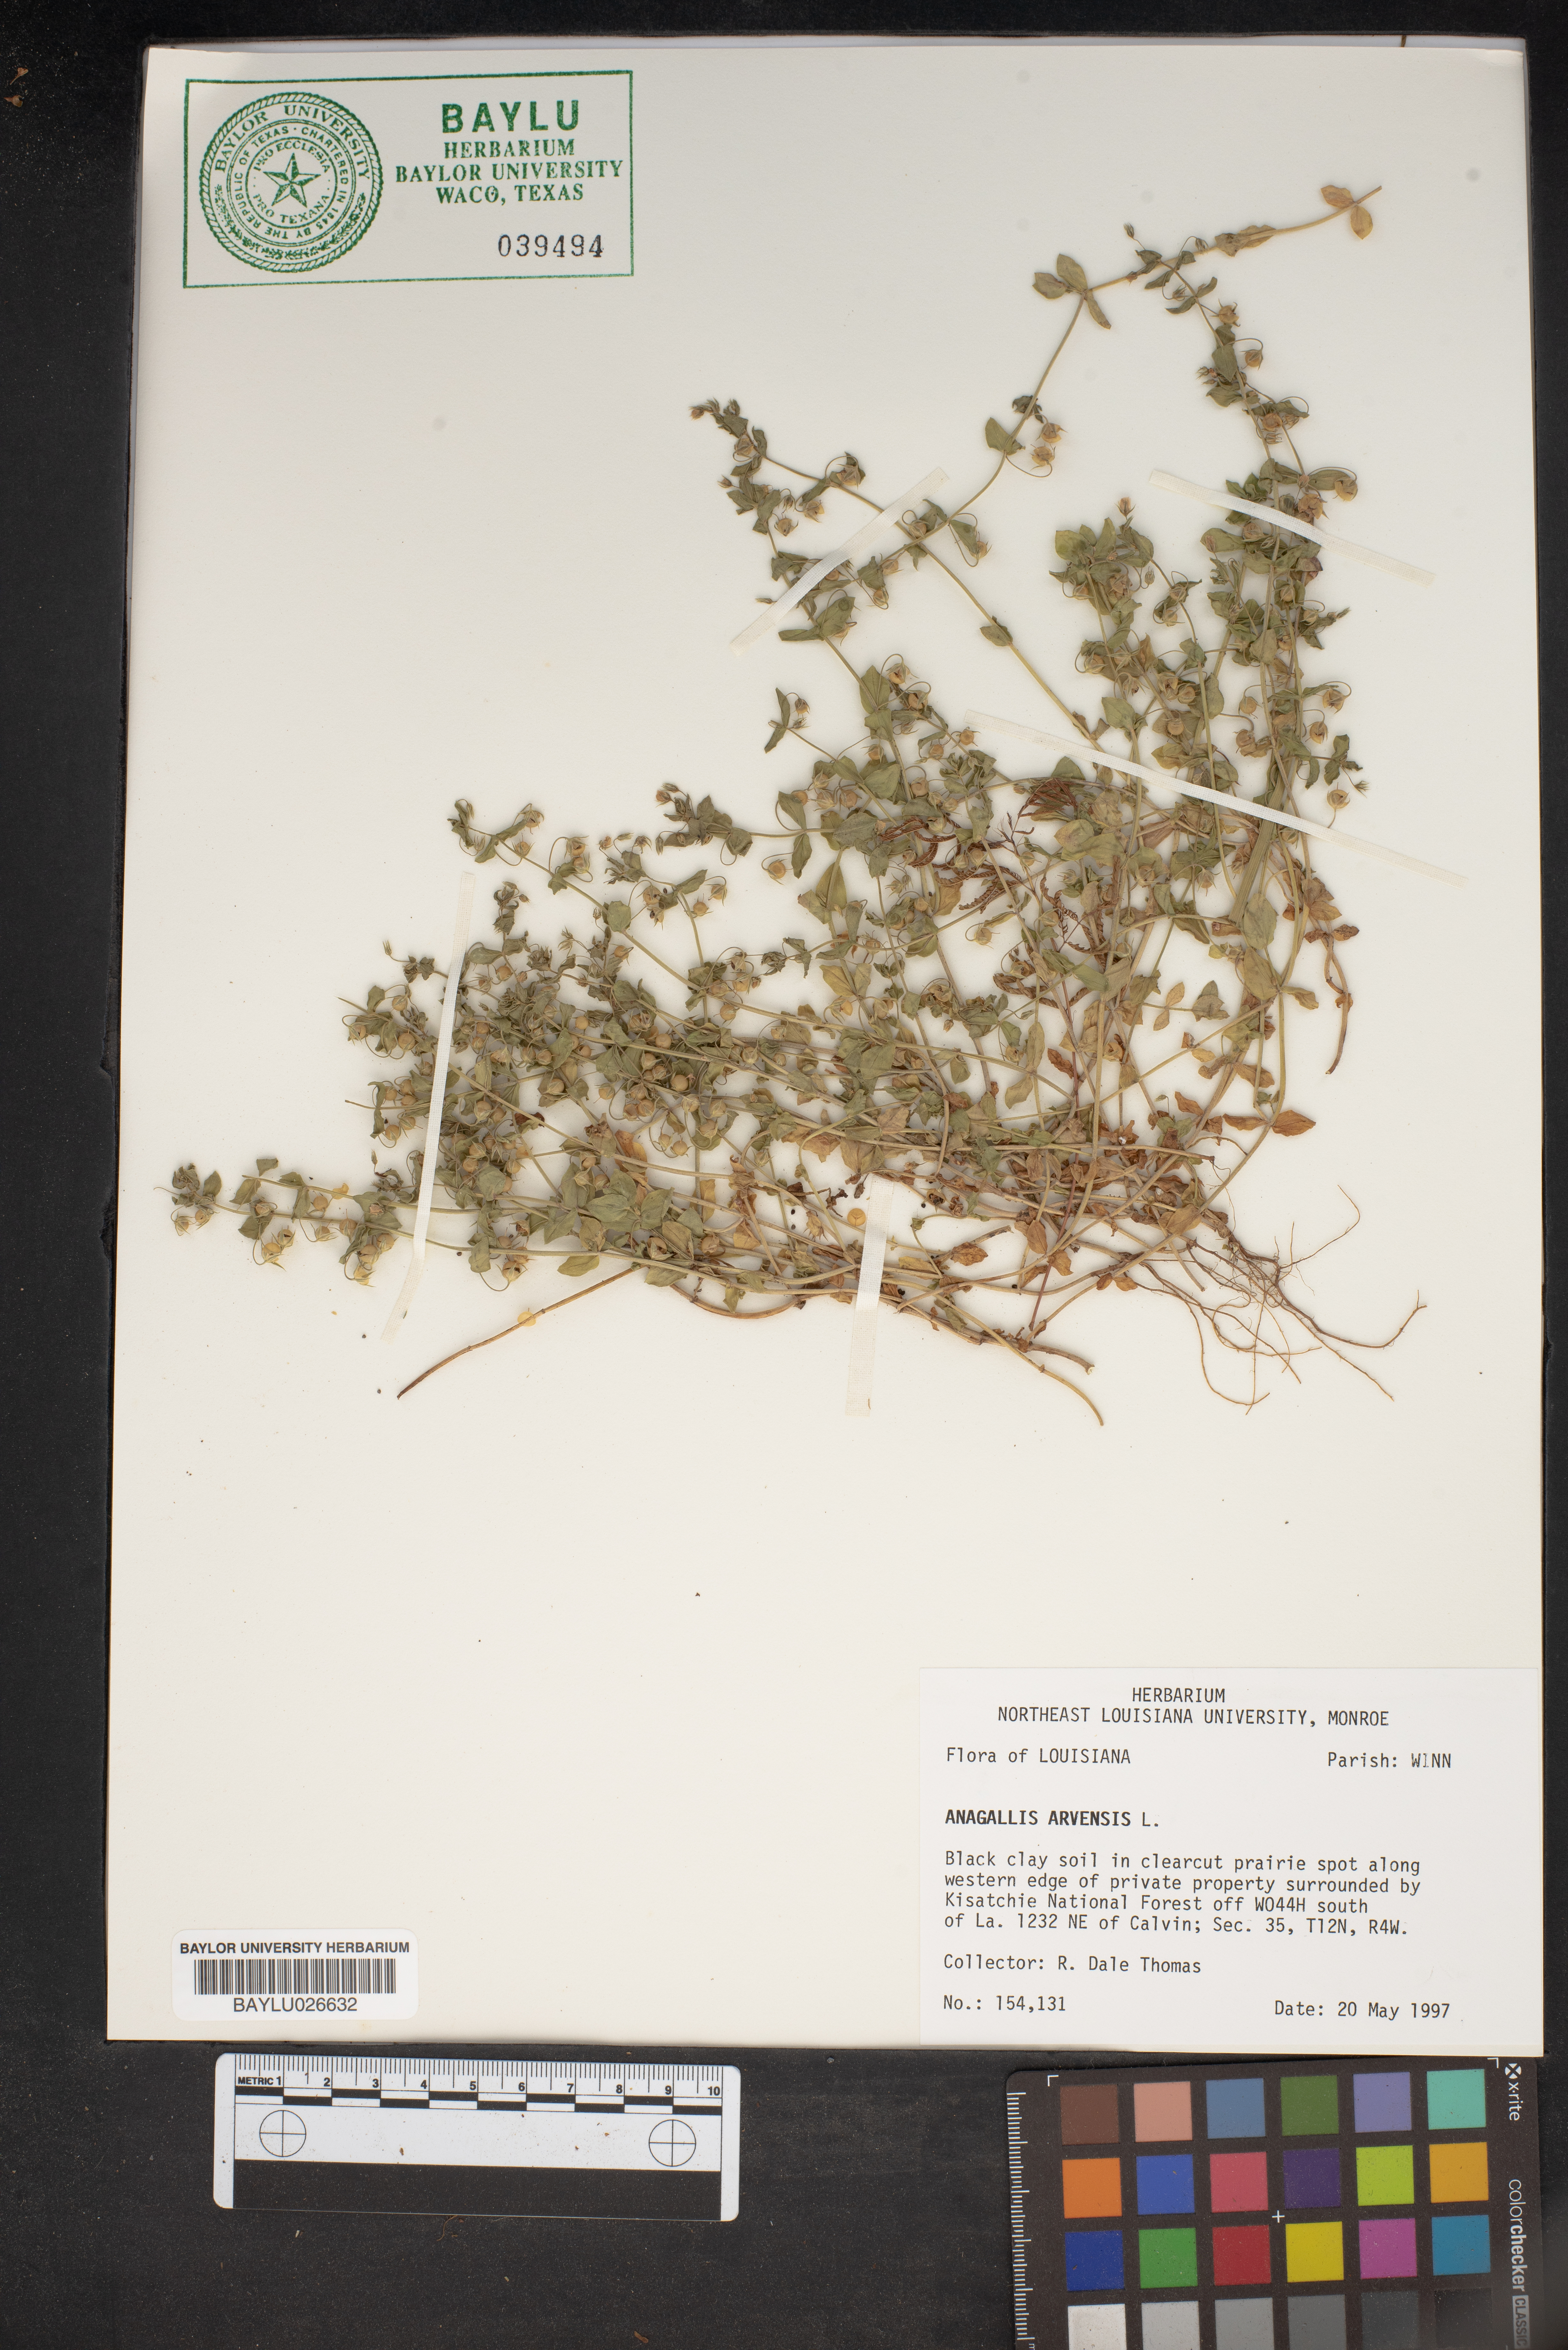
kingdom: Plantae
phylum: Tracheophyta
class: Magnoliopsida
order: Ericales
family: Primulaceae
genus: Lysimachia
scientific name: Lysimachia arvensis
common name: Scarlet pimpernel
